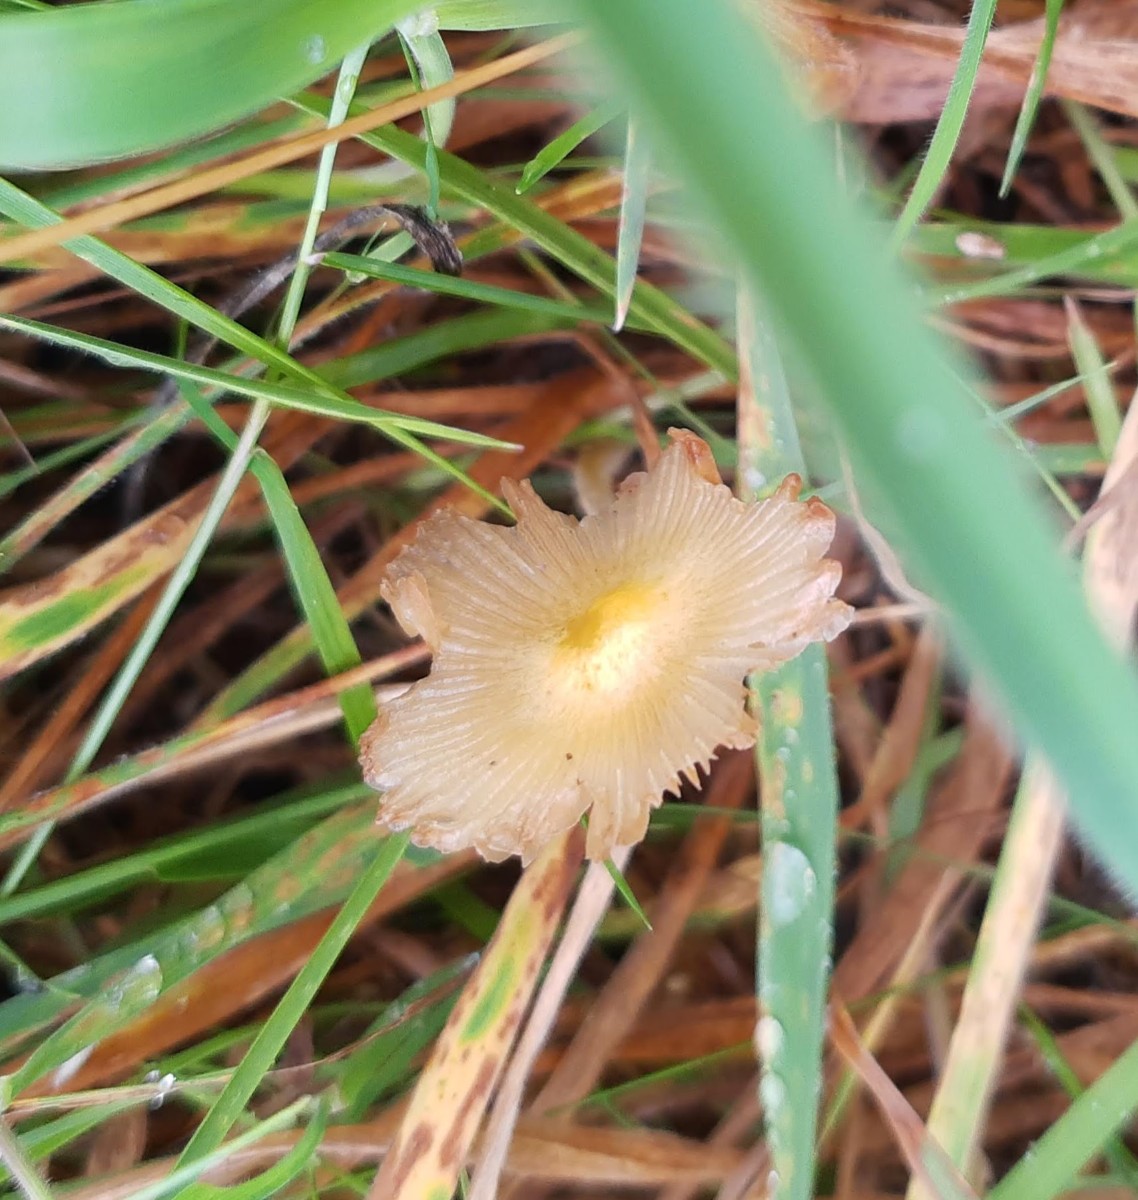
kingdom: Fungi
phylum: Basidiomycota
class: Agaricomycetes
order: Agaricales
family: Bolbitiaceae
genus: Bolbitius
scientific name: Bolbitius titubans
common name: almindelig gulhat
